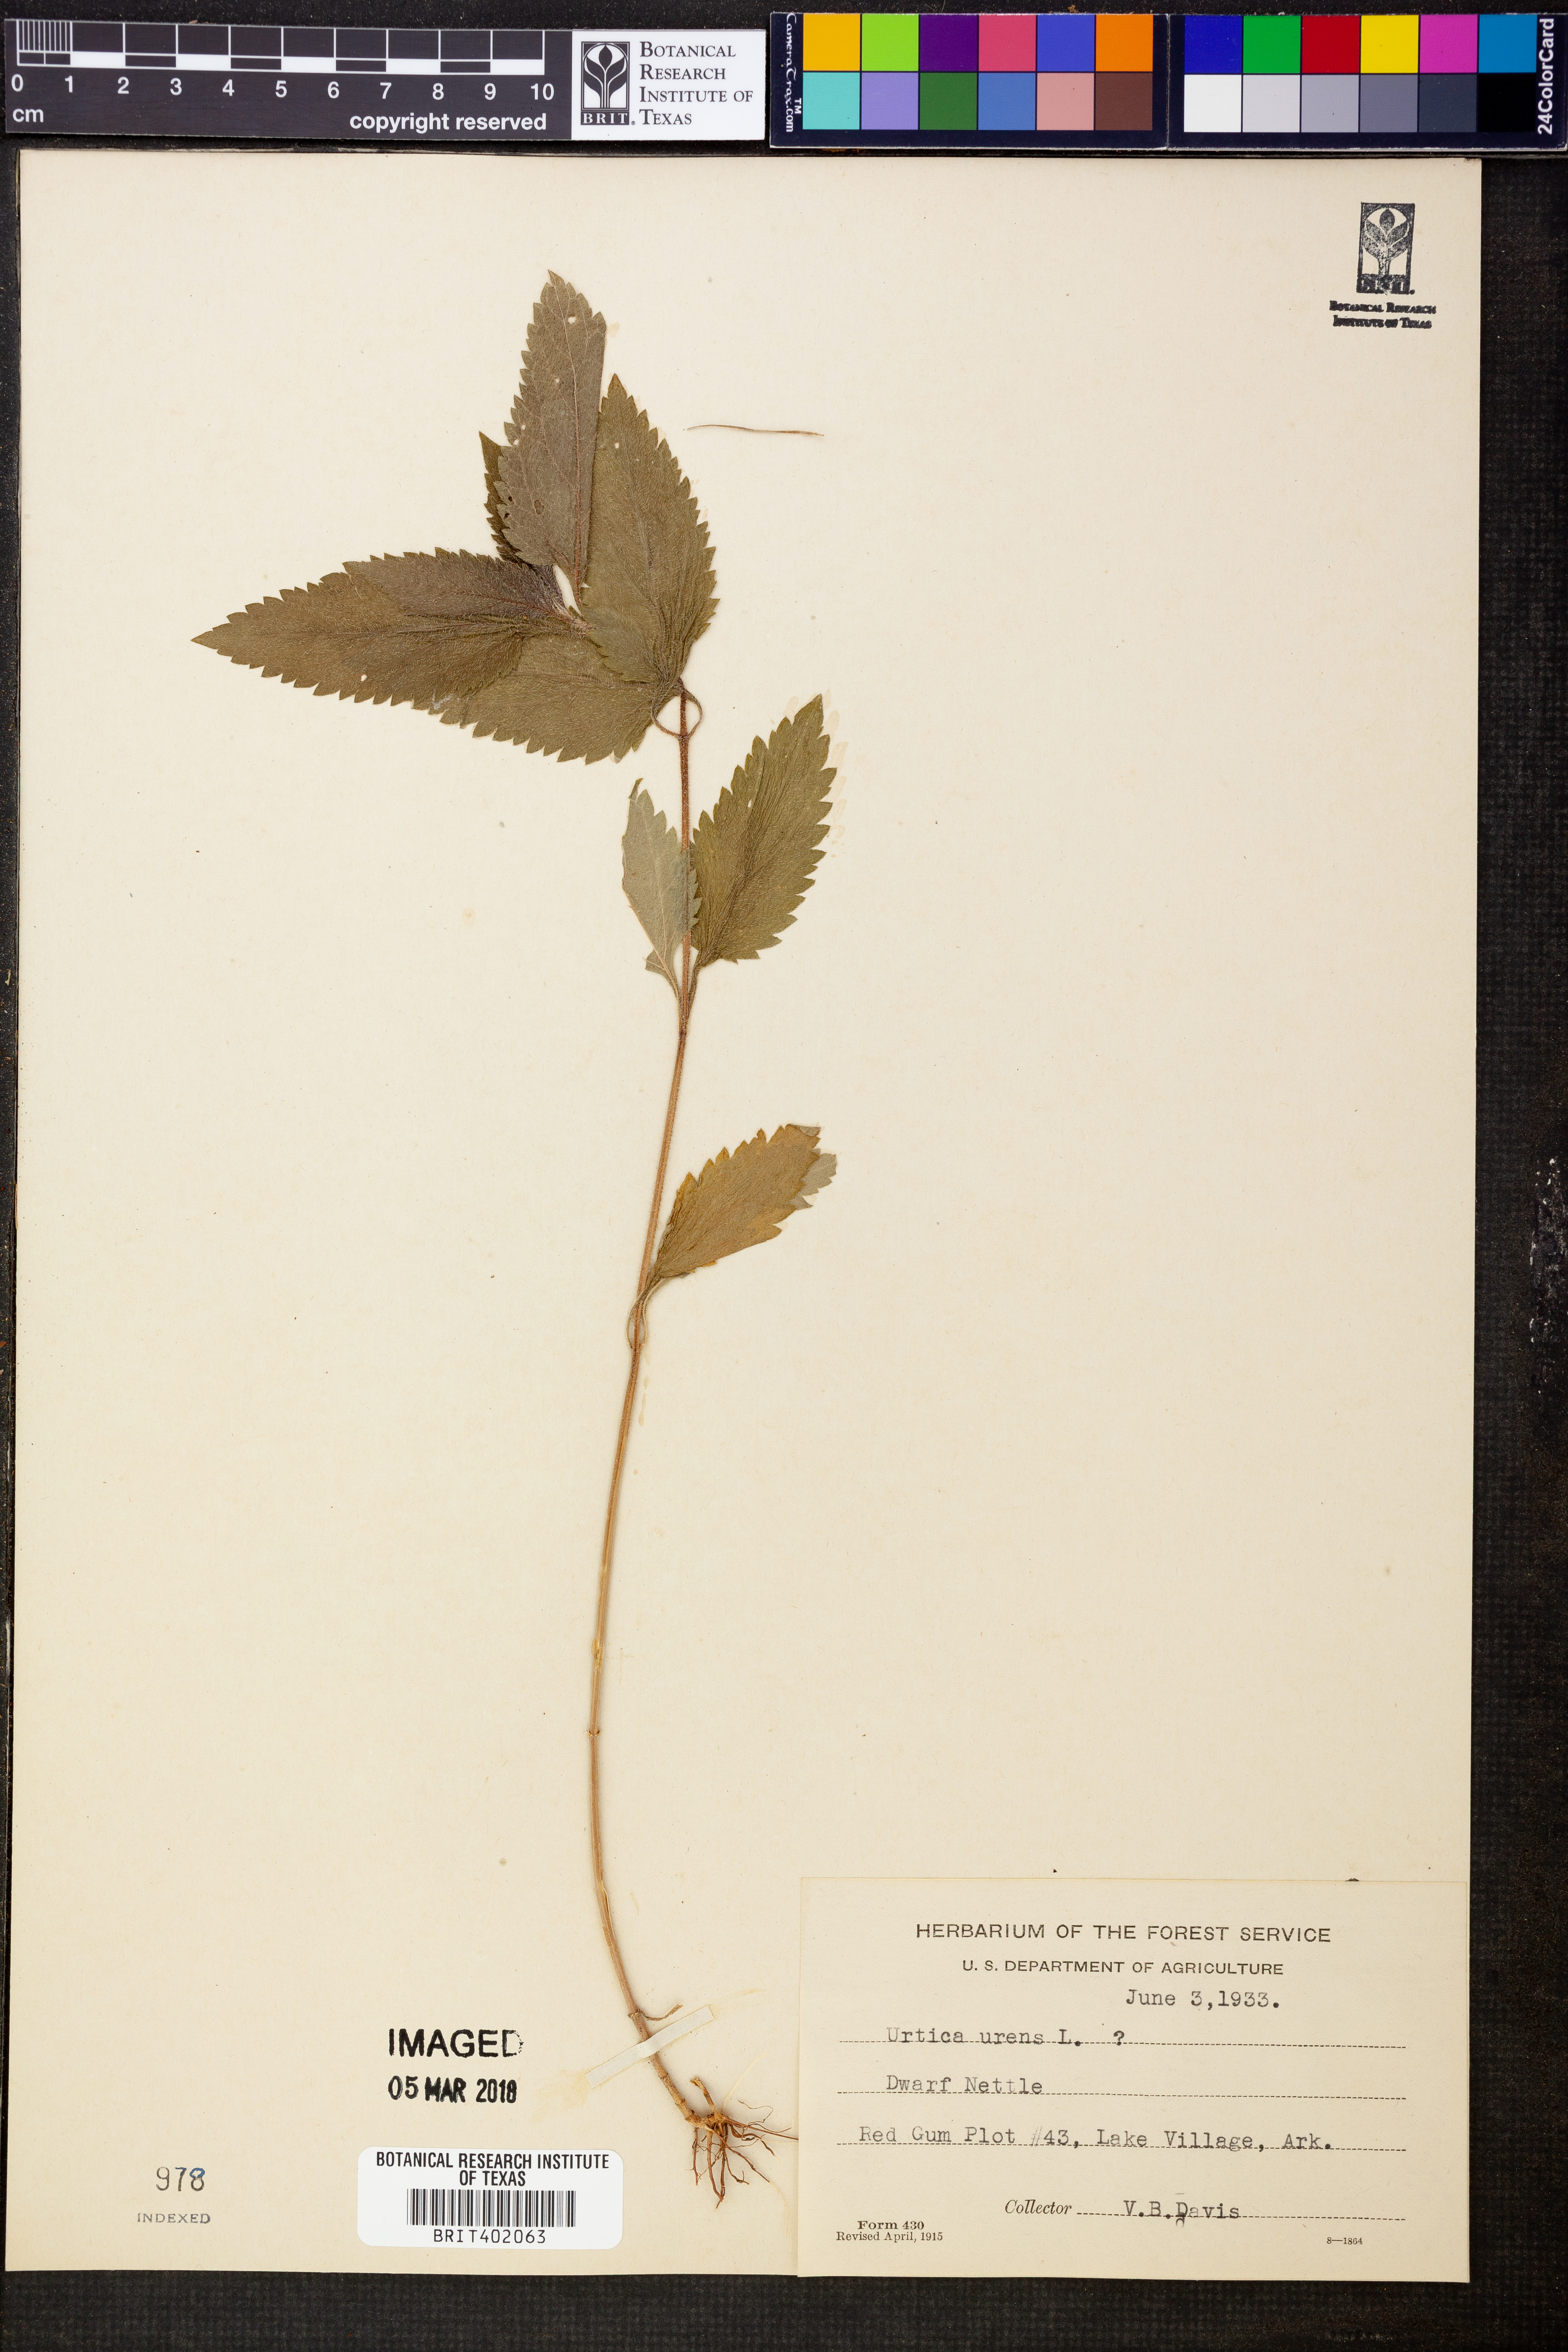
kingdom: Plantae
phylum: Tracheophyta
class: Magnoliopsida
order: Rosales
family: Urticaceae
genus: Urtica
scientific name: Urtica urens
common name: Dwarf nettle
